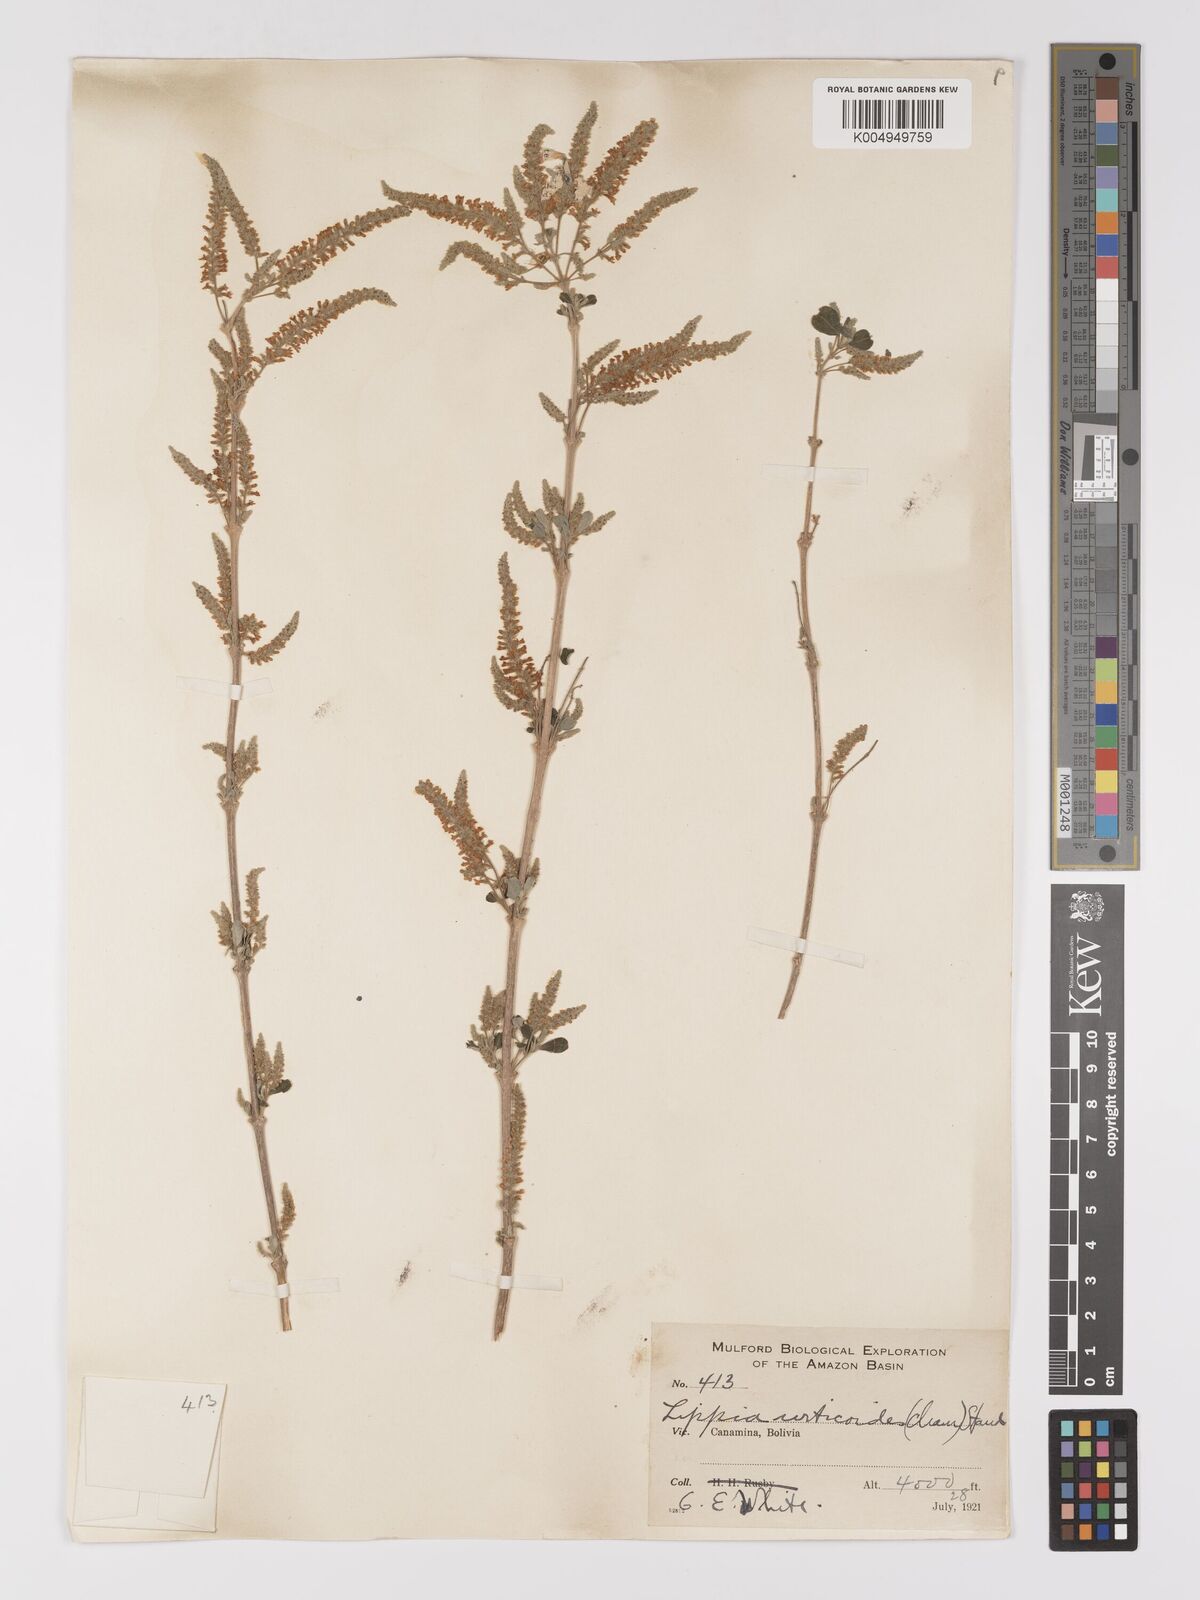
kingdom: Plantae
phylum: Tracheophyta
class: Magnoliopsida
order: Lamiales
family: Verbenaceae
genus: Aloysia
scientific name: Aloysia virgata
